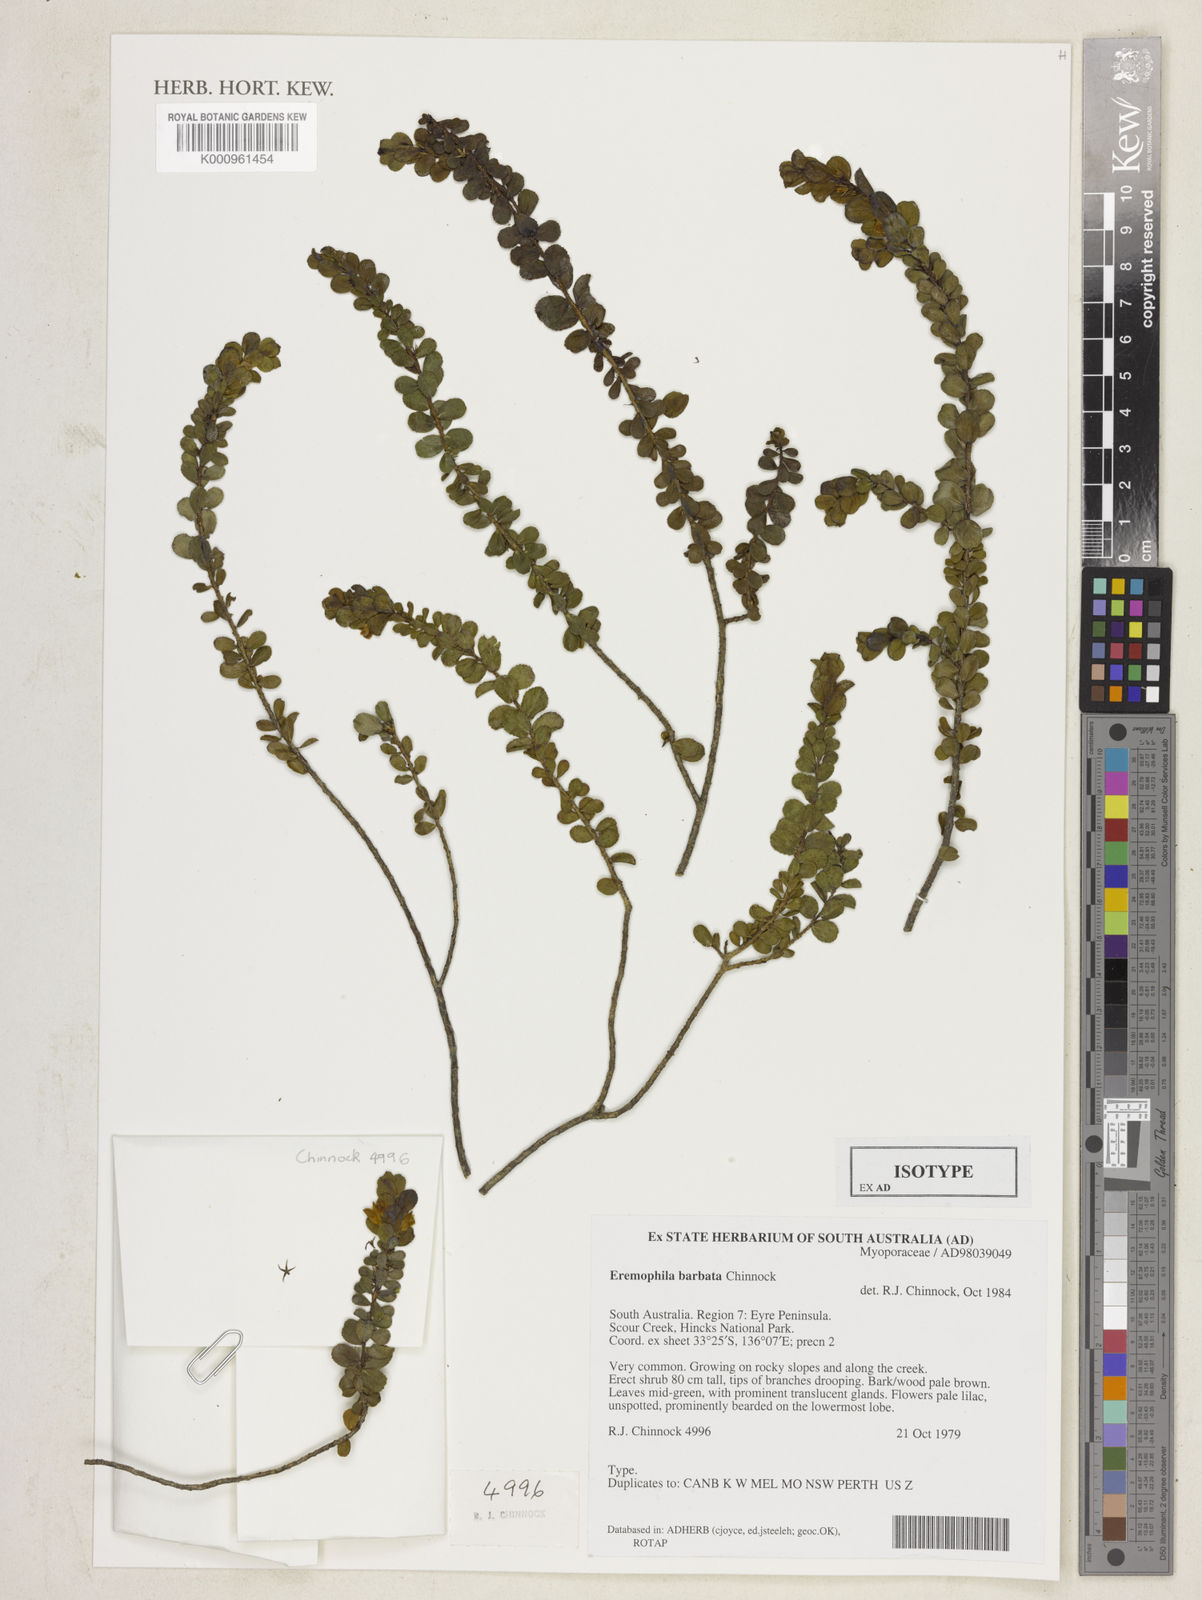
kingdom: Plantae
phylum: Tracheophyta
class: Magnoliopsida
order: Lamiales
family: Scrophulariaceae
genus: Eremophila
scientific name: Eremophila barbata
